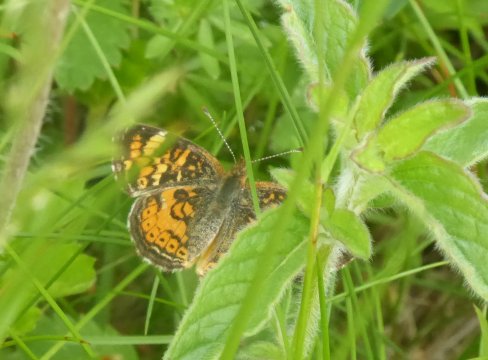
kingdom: Animalia
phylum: Arthropoda
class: Insecta
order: Lepidoptera
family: Nymphalidae
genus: Phyciodes
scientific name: Phyciodes
